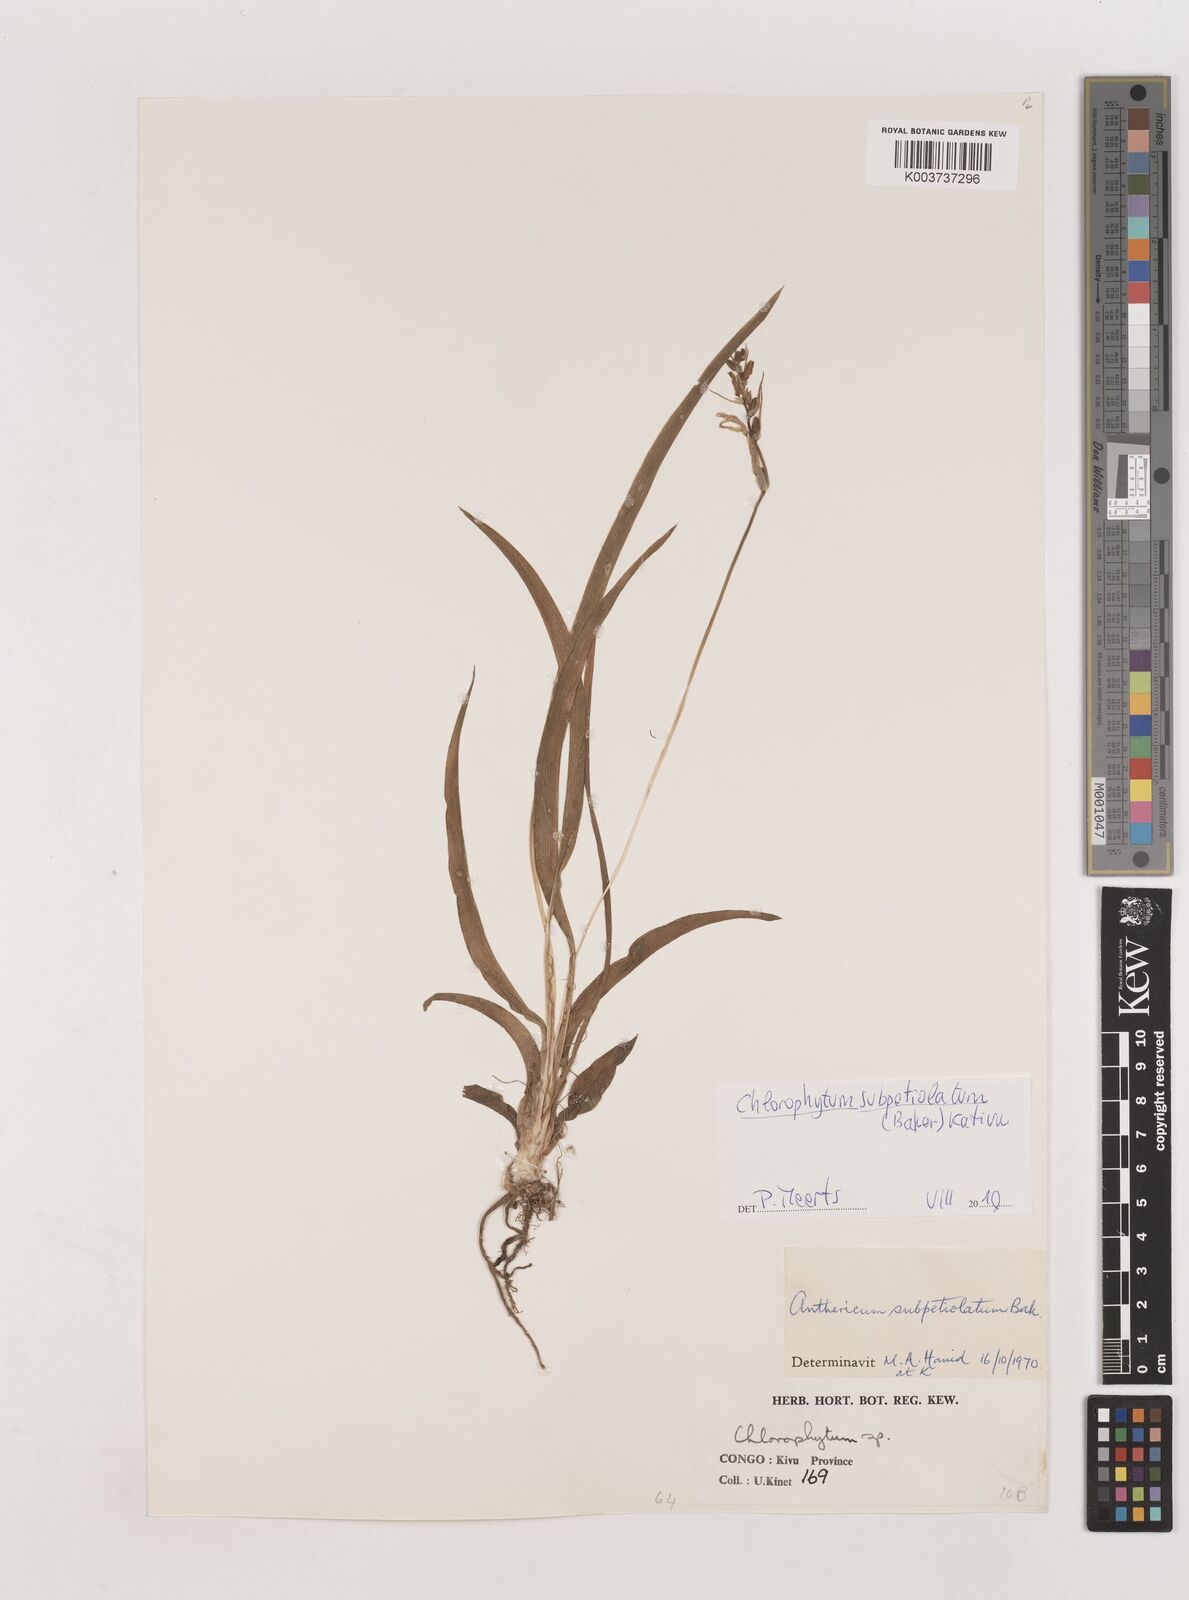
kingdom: Plantae
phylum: Tracheophyta
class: Liliopsida
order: Asparagales
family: Asparagaceae
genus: Chlorophytum
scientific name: Chlorophytum subpetiolatum
